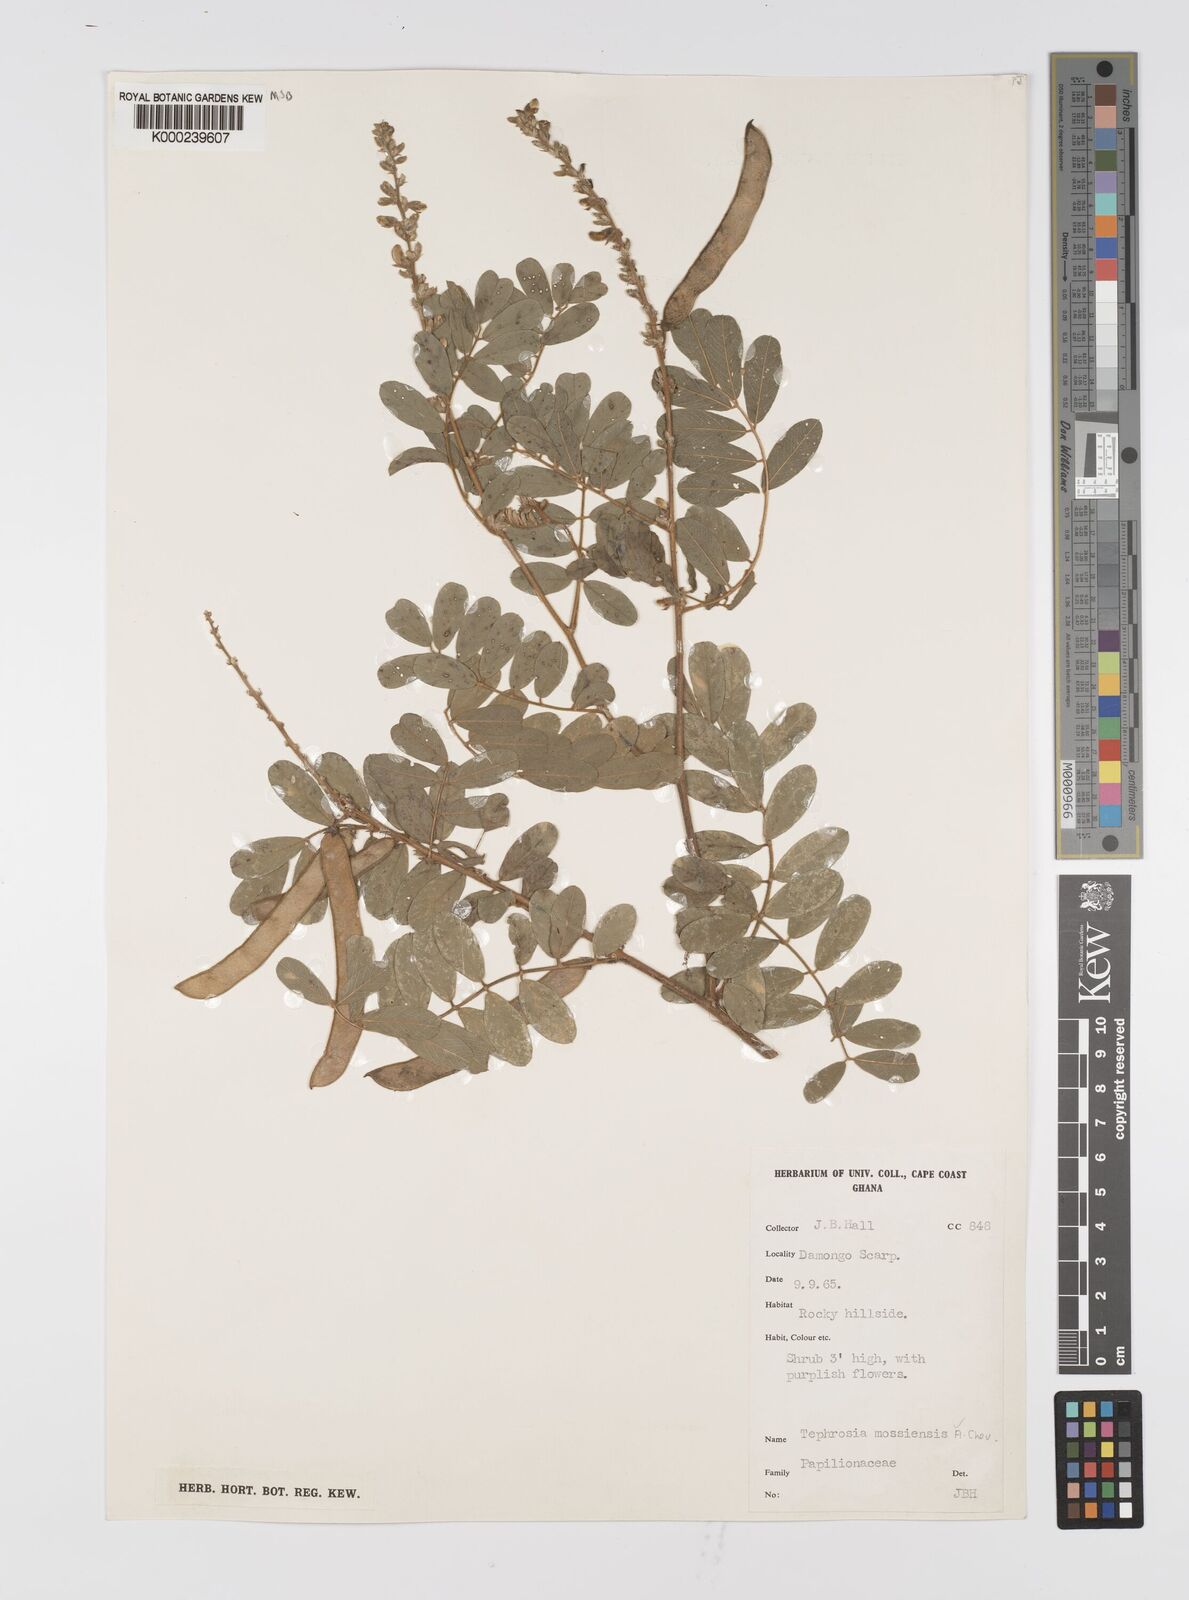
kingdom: Plantae
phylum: Tracheophyta
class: Magnoliopsida
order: Fabales
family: Fabaceae
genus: Tephrosia
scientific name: Tephrosia mossiensis
